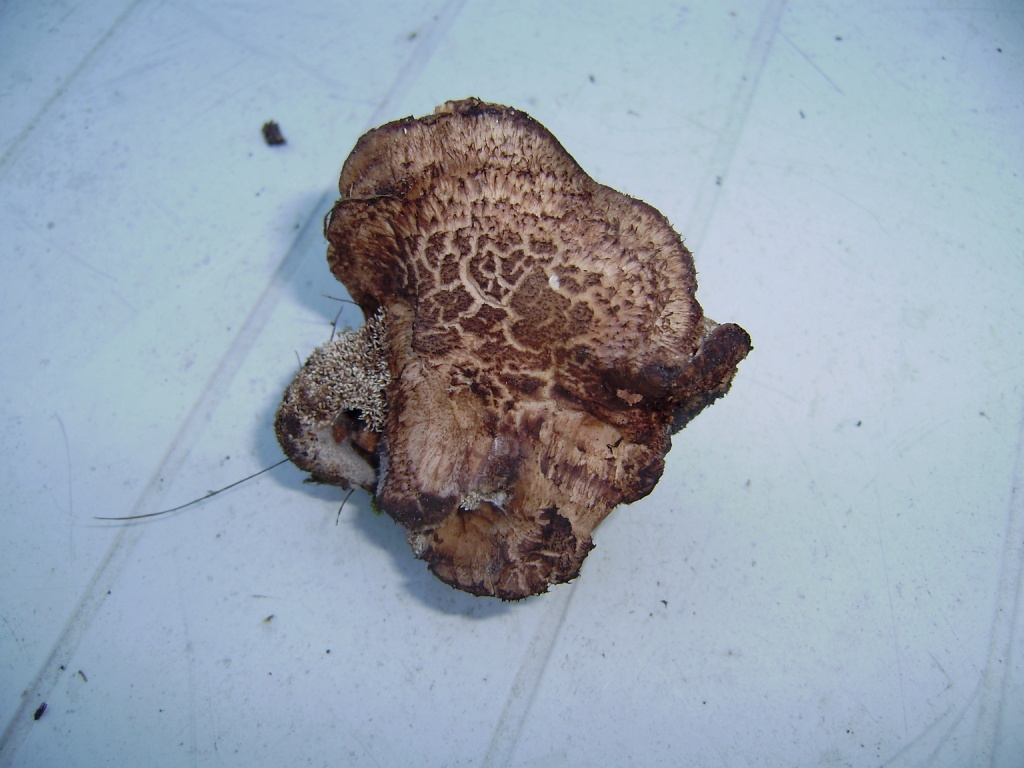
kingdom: Fungi
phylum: Basidiomycota
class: Agaricomycetes
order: Thelephorales
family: Bankeraceae
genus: Sarcodon
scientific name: Sarcodon
